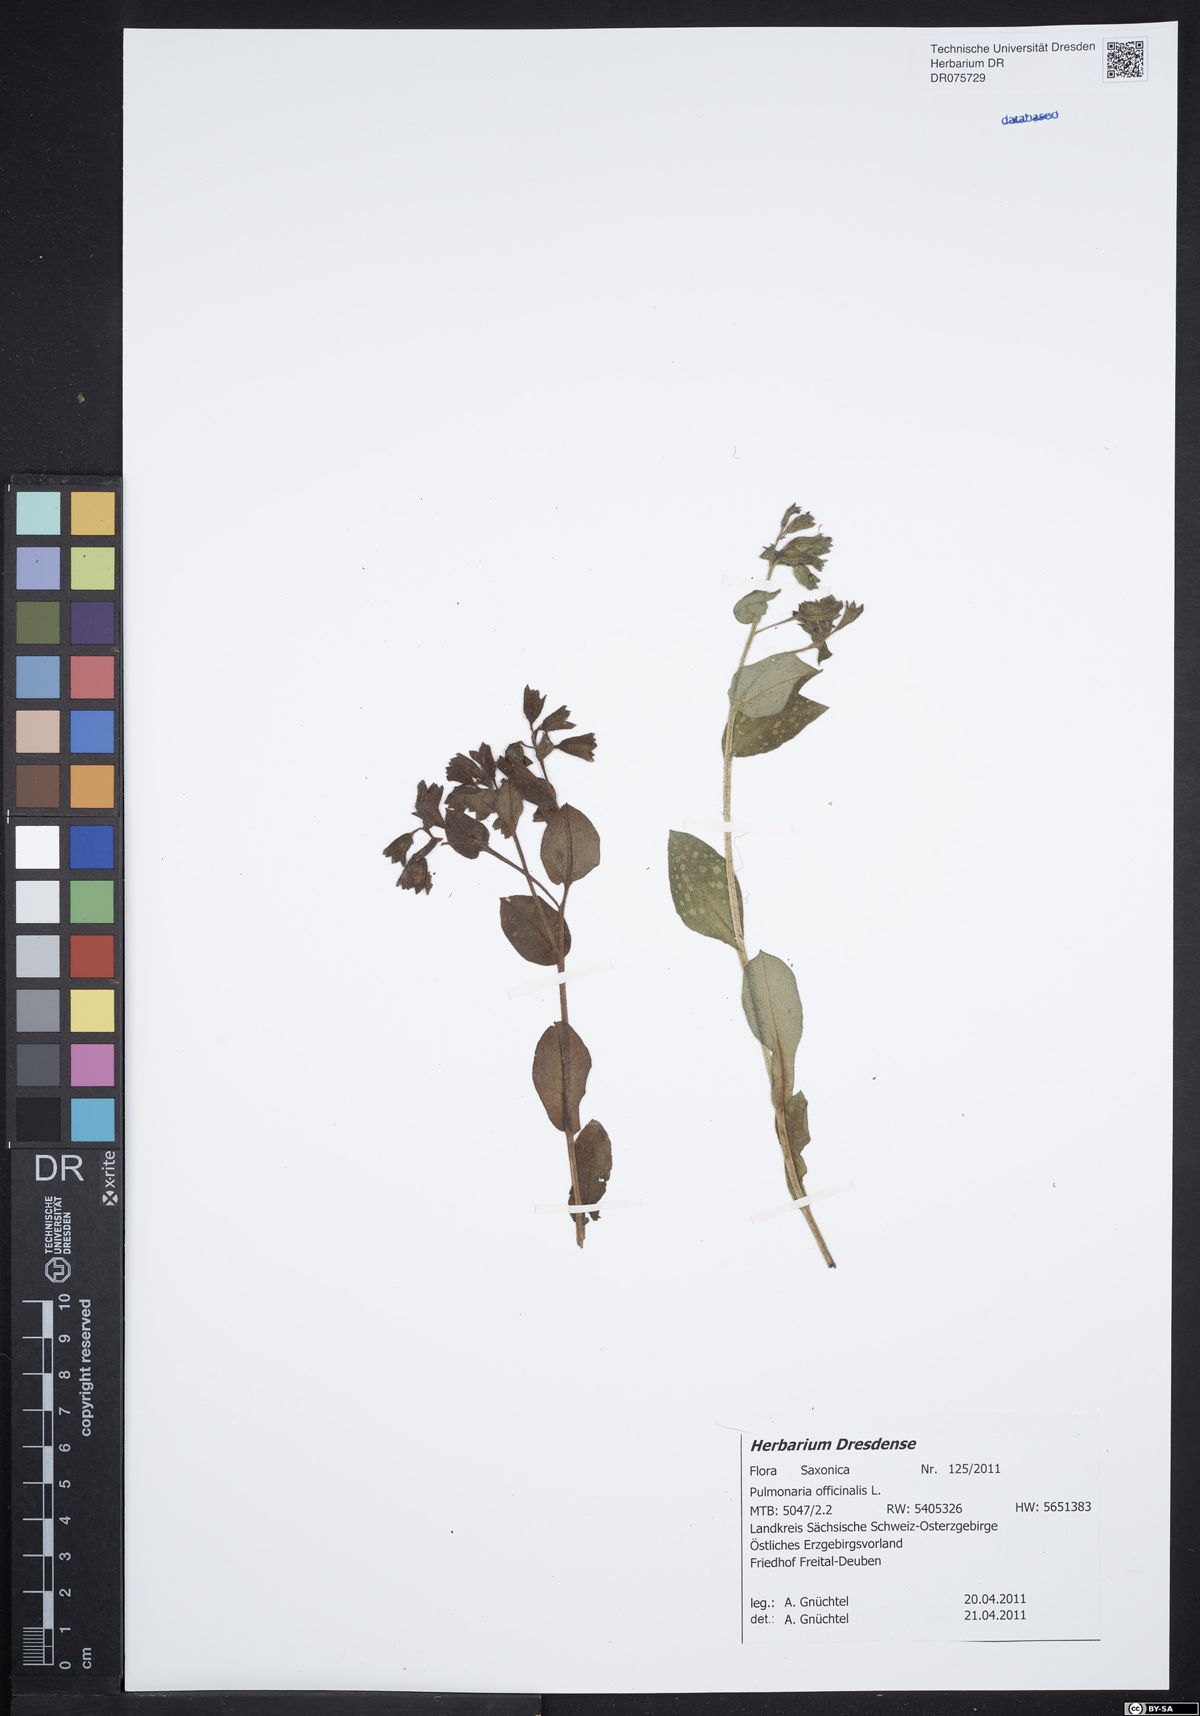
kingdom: Plantae
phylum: Tracheophyta
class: Magnoliopsida
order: Boraginales
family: Boraginaceae
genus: Pulmonaria
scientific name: Pulmonaria officinalis
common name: Lungwort
